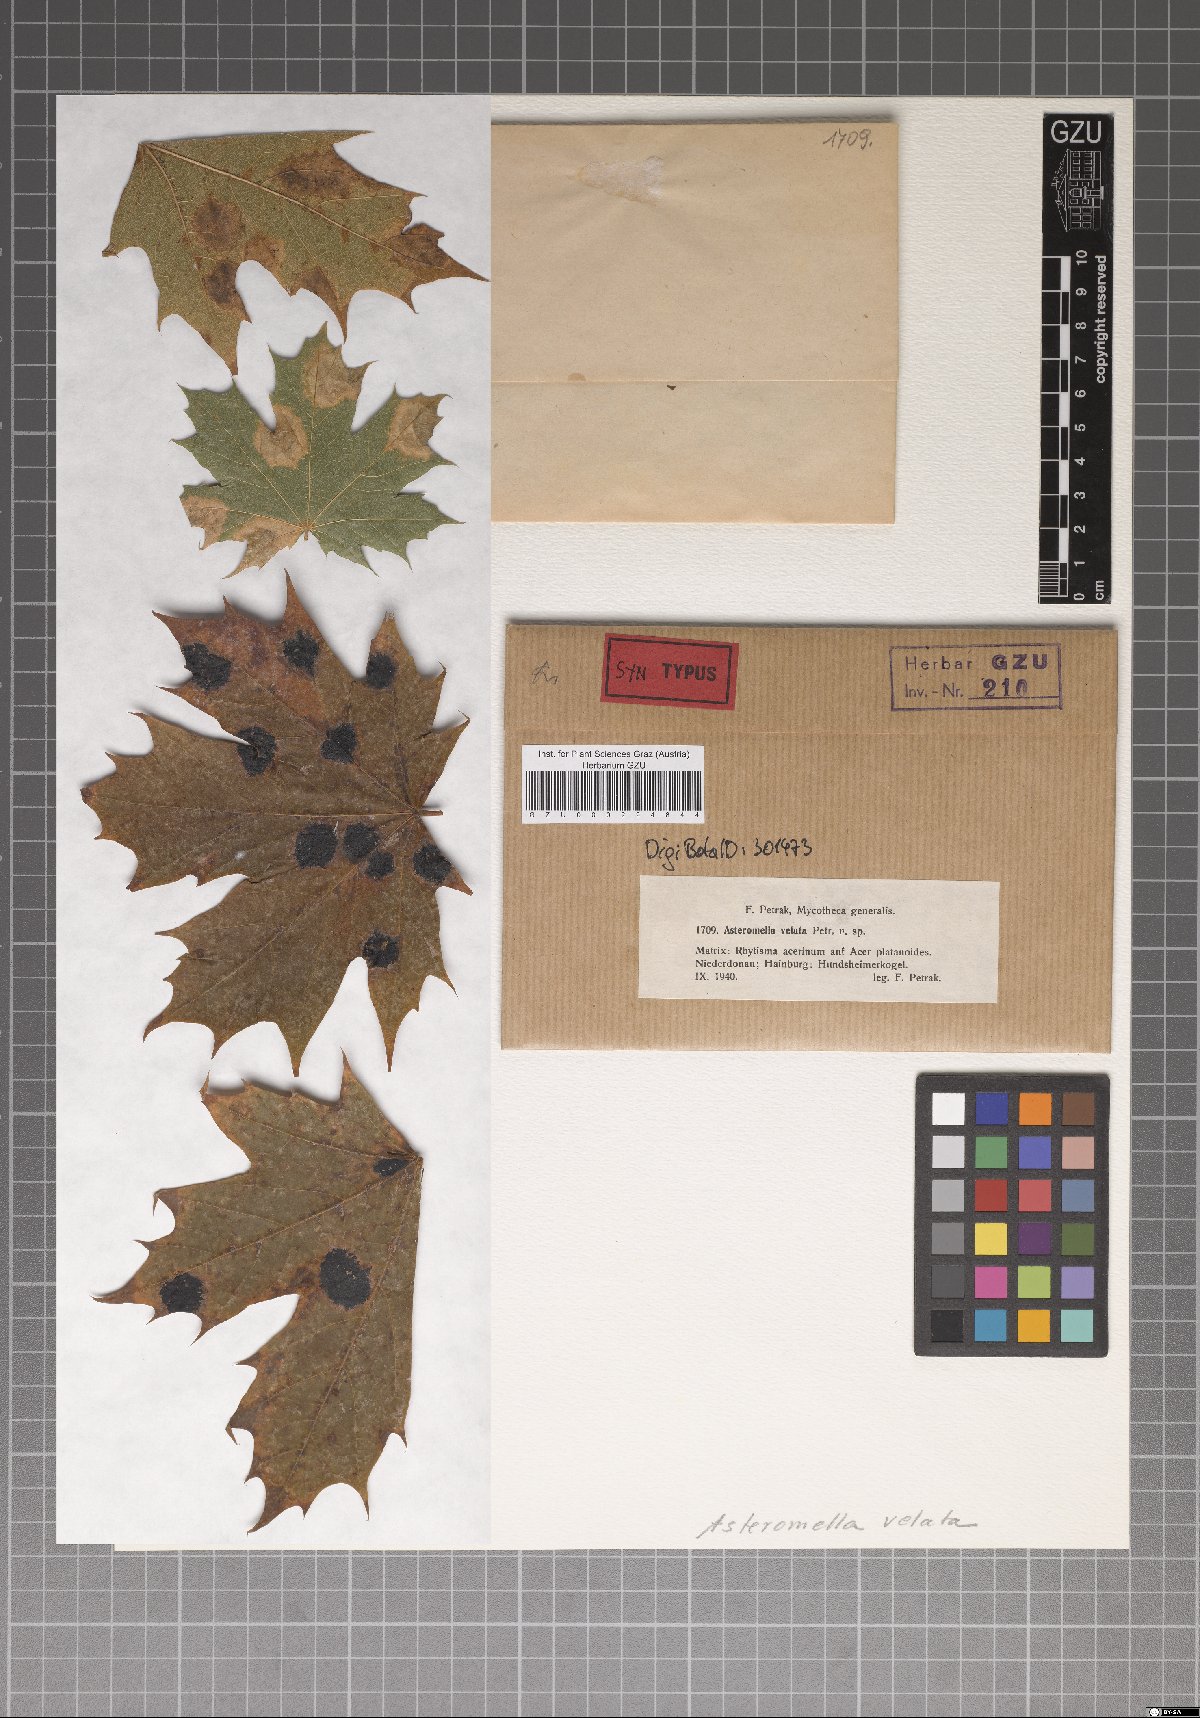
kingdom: Fungi
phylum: Ascomycota
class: Dothideomycetes
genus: Asteromella
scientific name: Asteromella velata
